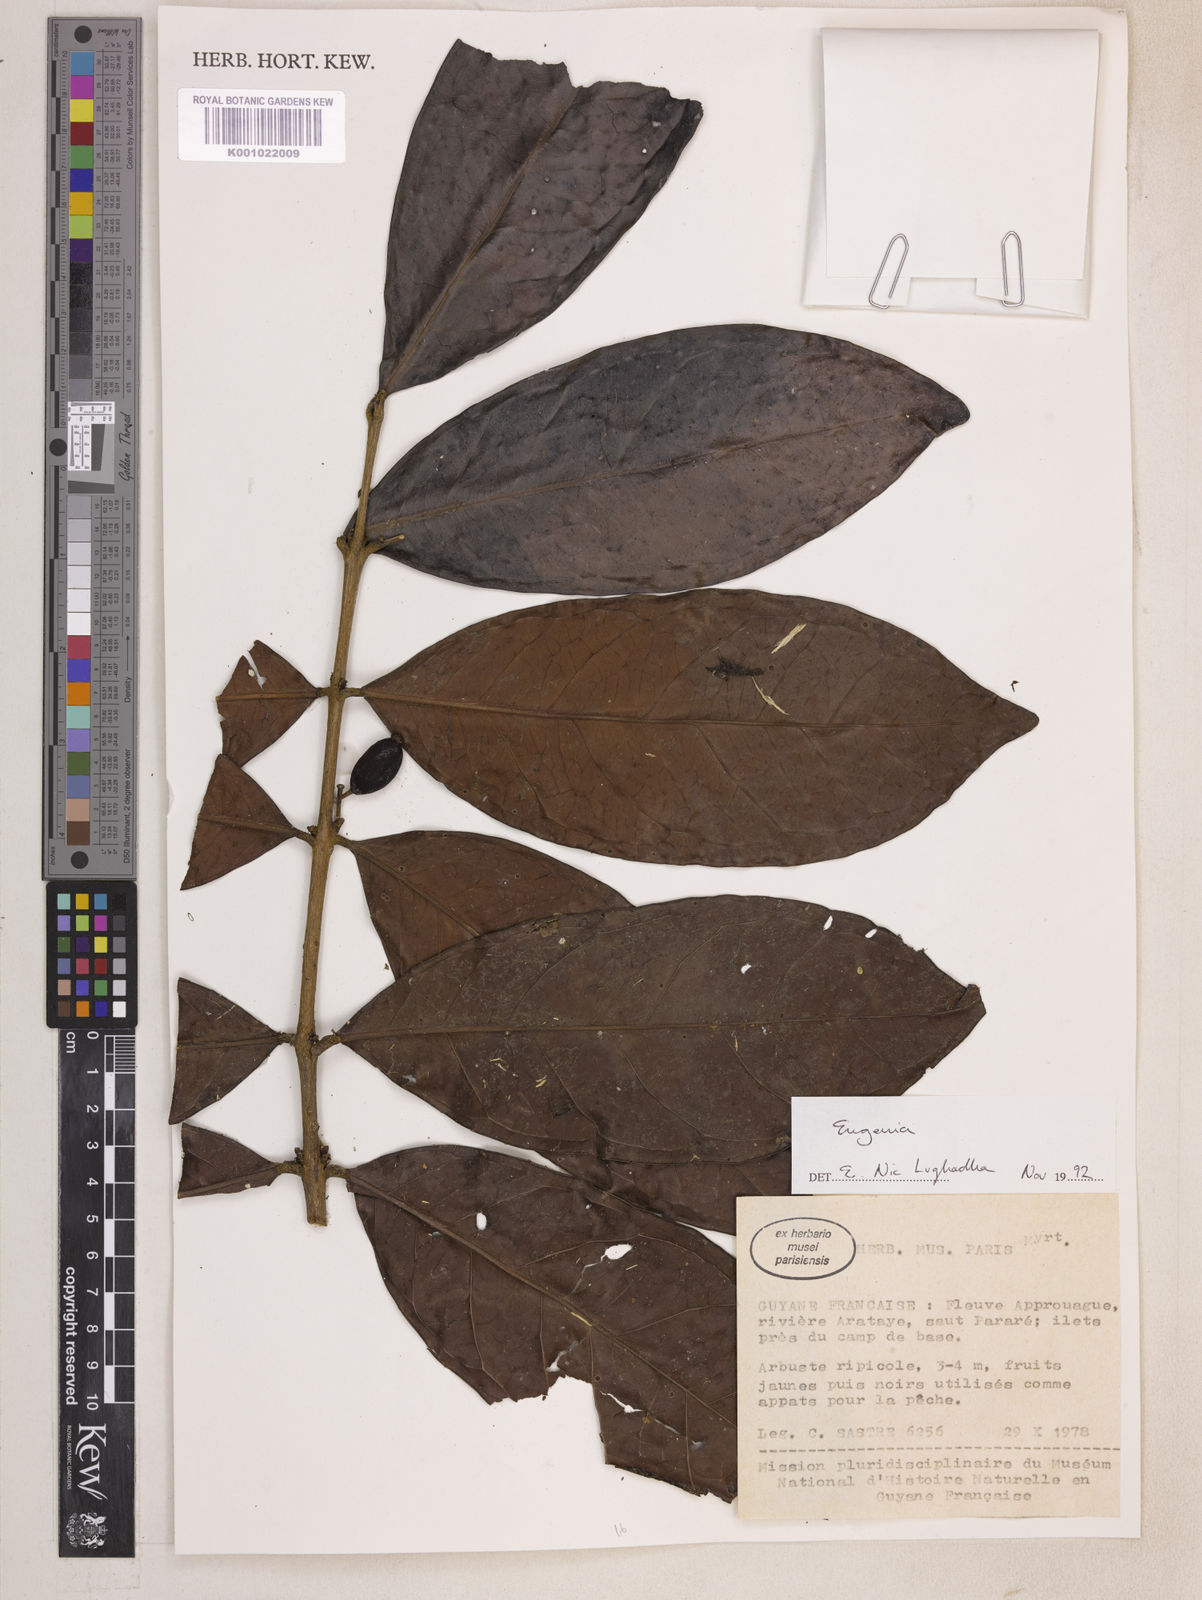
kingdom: Plantae
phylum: Tracheophyta
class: Magnoliopsida
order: Myrtales
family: Myrtaceae
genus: Eugenia
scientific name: Eugenia latifolia
